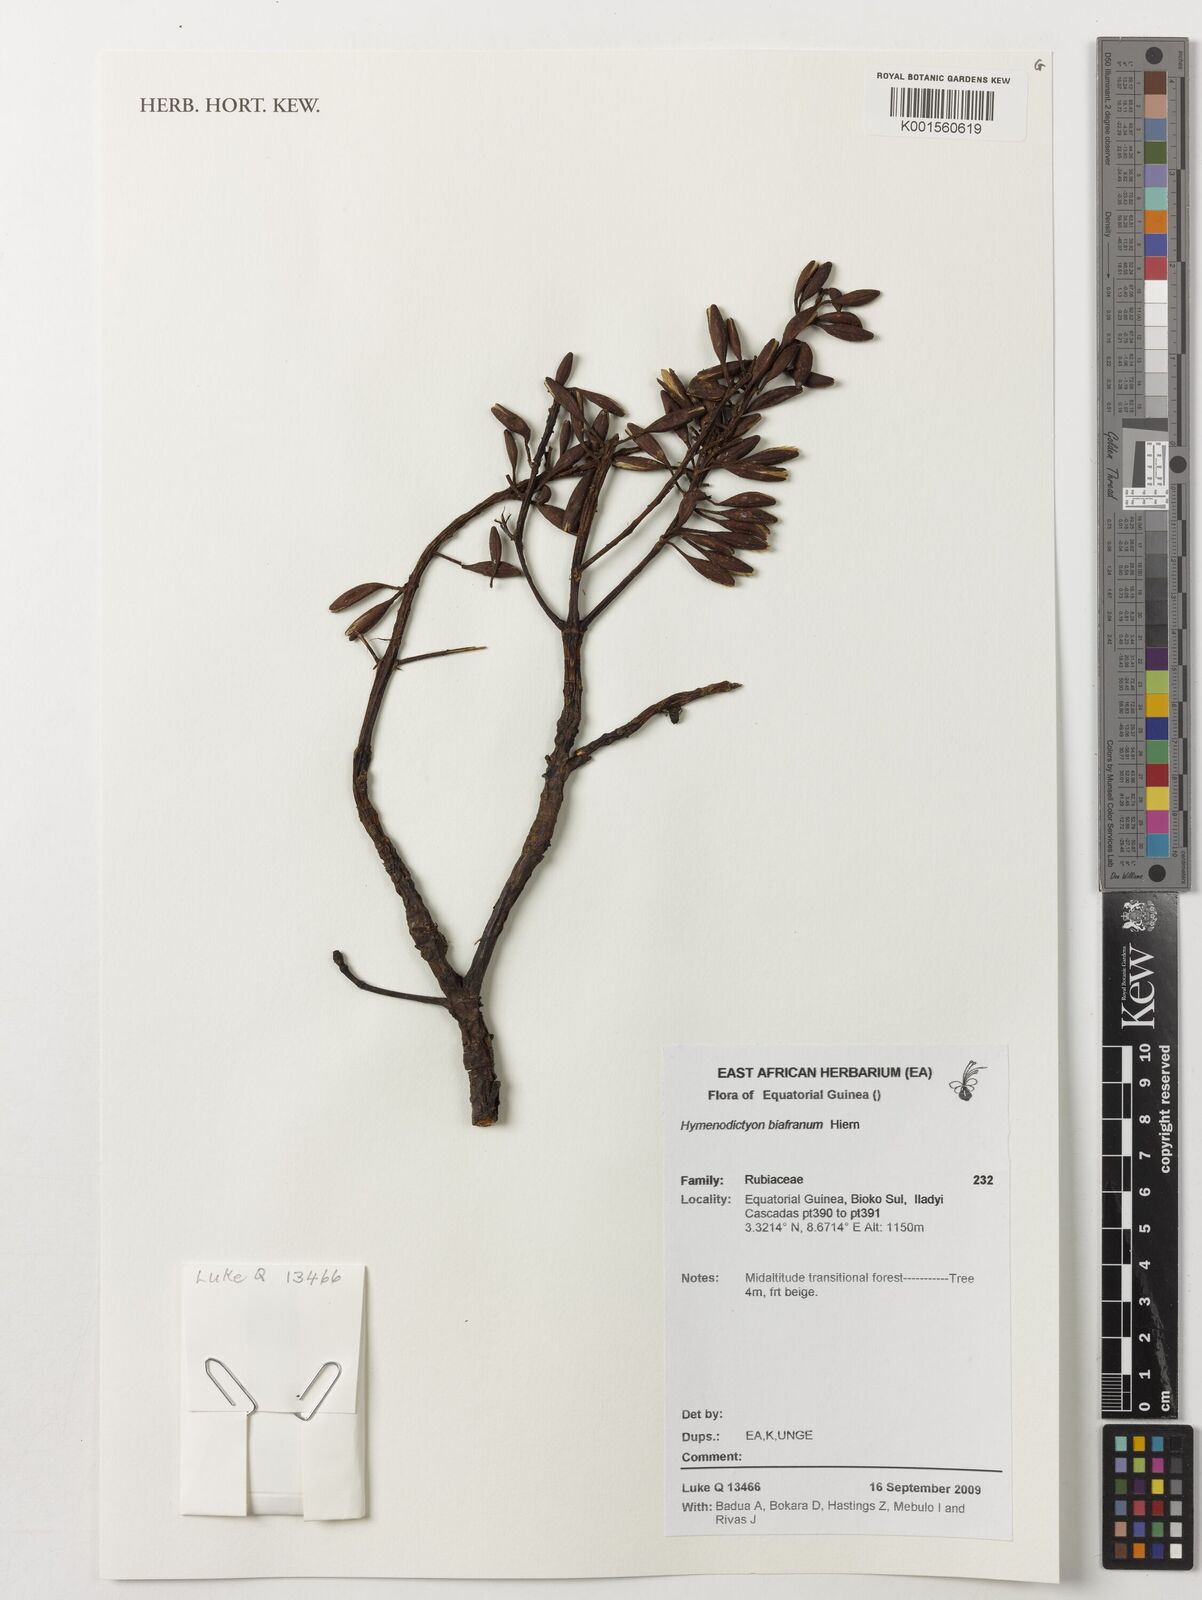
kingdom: Plantae
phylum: Tracheophyta
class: Magnoliopsida
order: Gentianales
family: Rubiaceae
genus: Hymenodictyon
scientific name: Hymenodictyon biafranum
